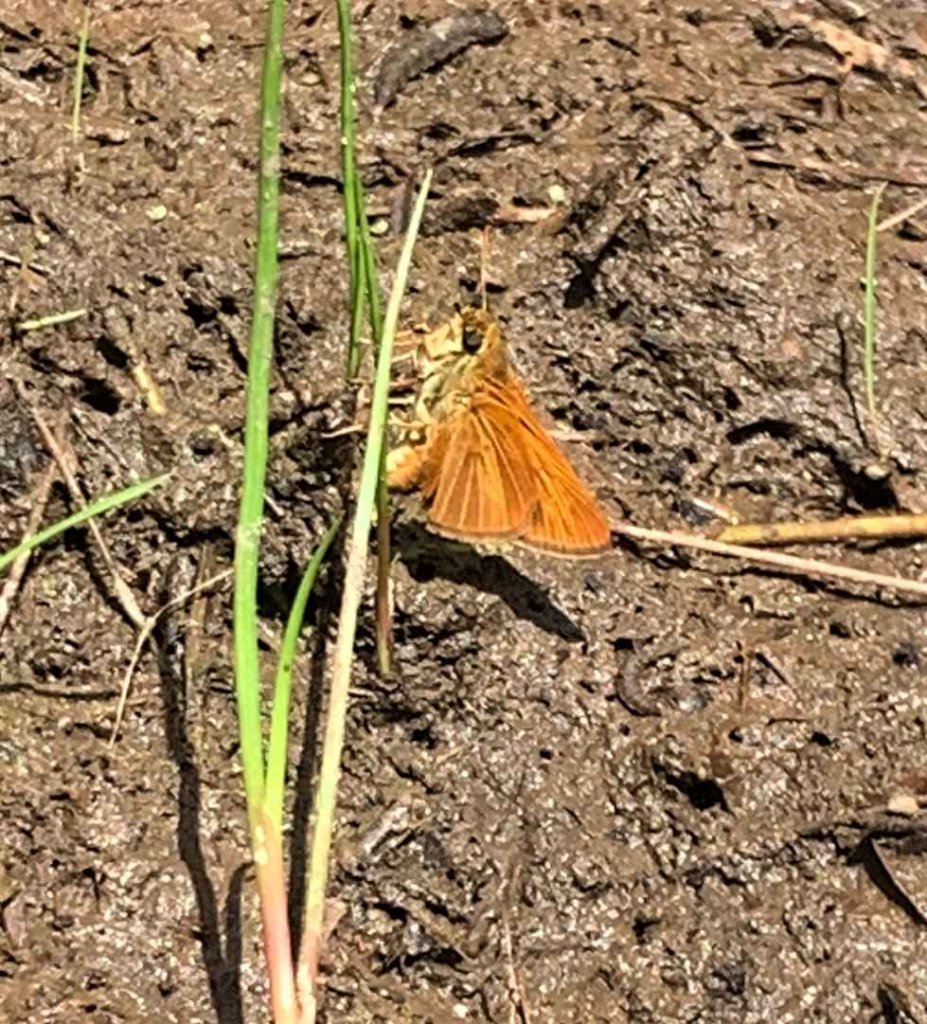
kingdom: Animalia
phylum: Arthropoda
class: Insecta
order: Lepidoptera
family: Hesperiidae
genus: Euphyes
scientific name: Euphyes dion
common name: Dion Skipper
